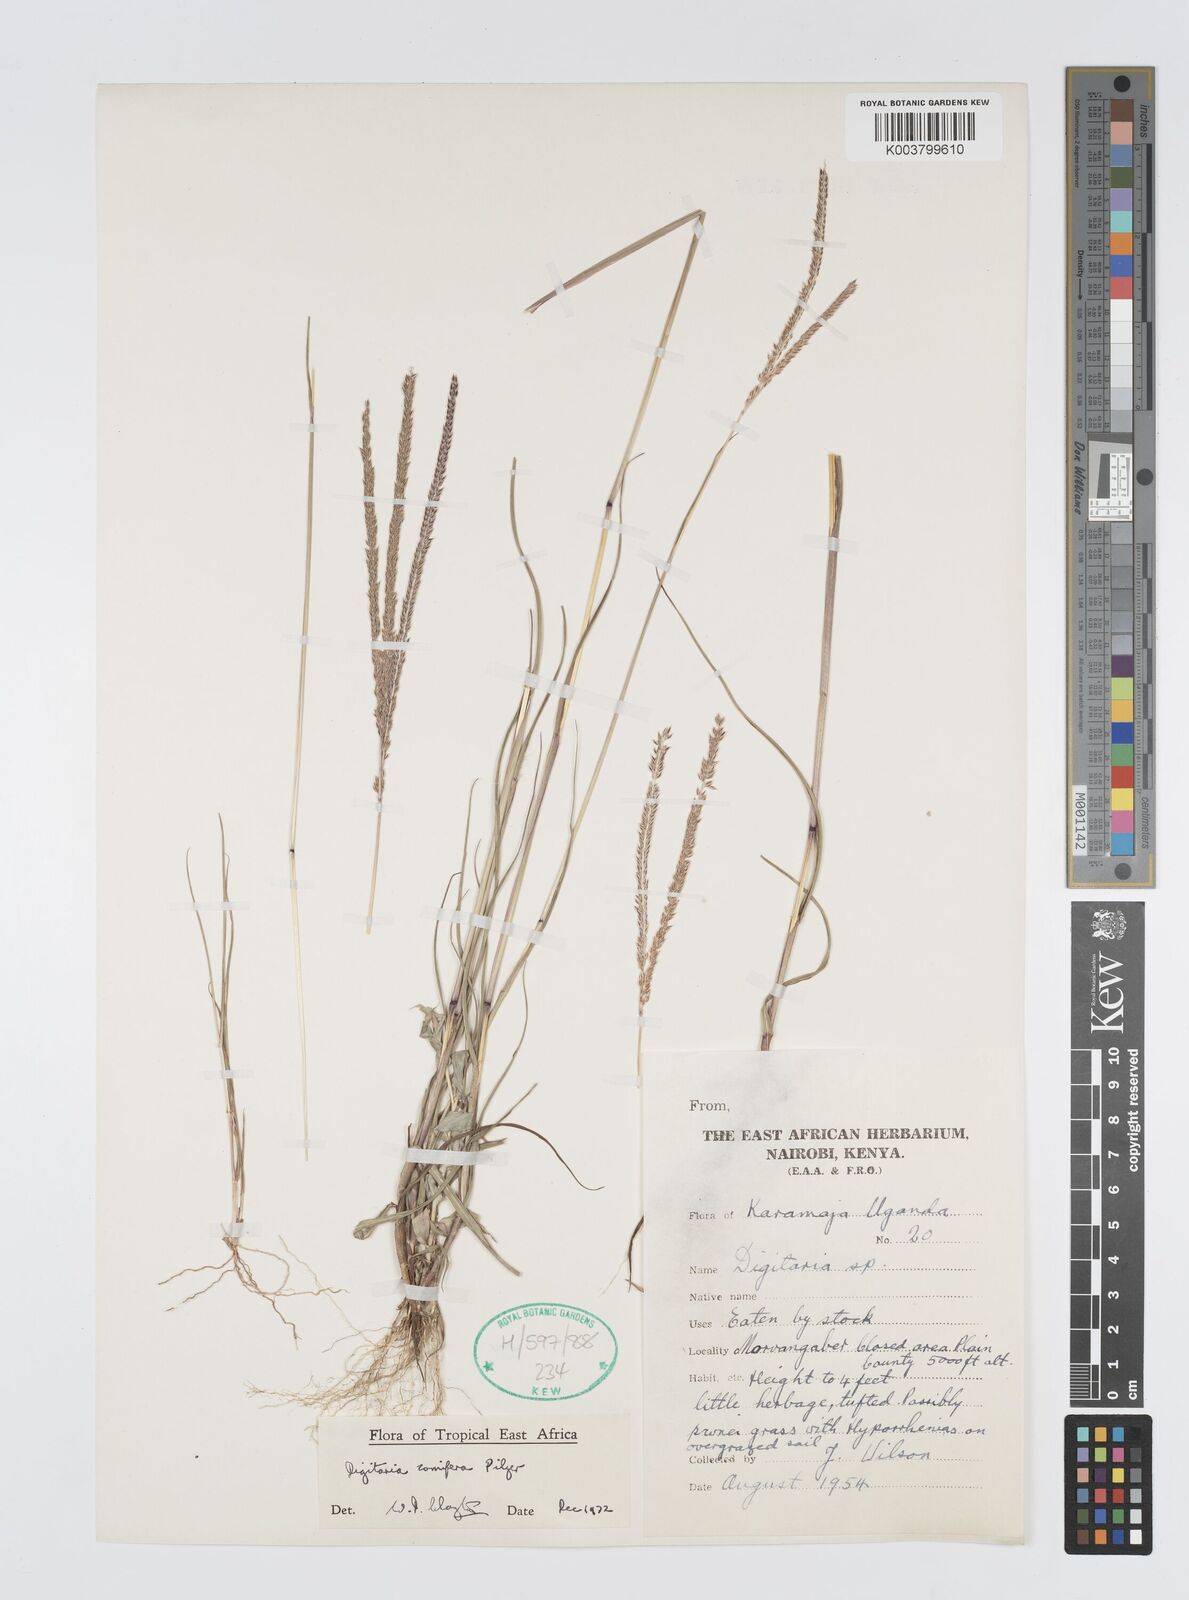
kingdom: Plantae
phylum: Tracheophyta
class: Liliopsida
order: Poales
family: Poaceae
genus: Digitaria
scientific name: Digitaria comifera
